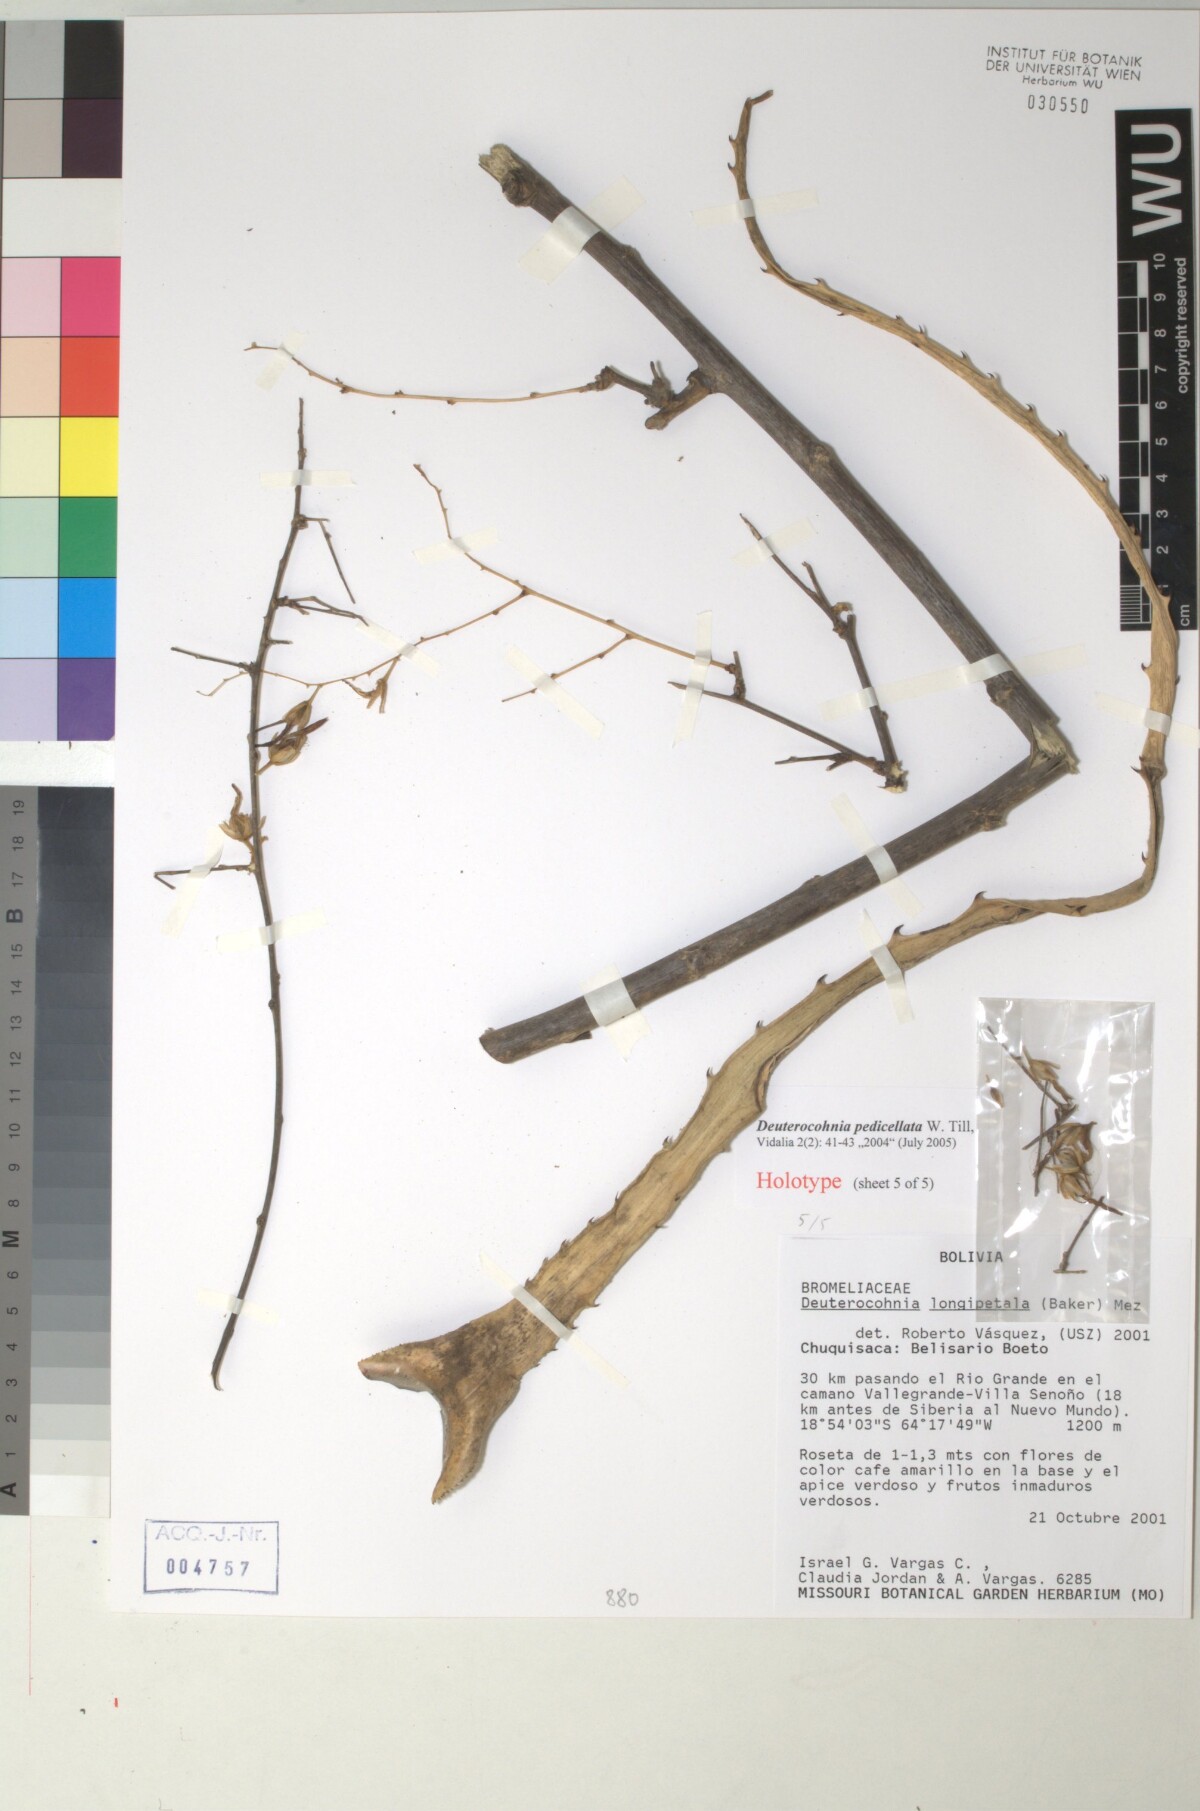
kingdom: Plantae
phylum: Tracheophyta
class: Liliopsida
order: Poales
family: Bromeliaceae
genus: Deuterocohnia
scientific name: Deuterocohnia meziana
